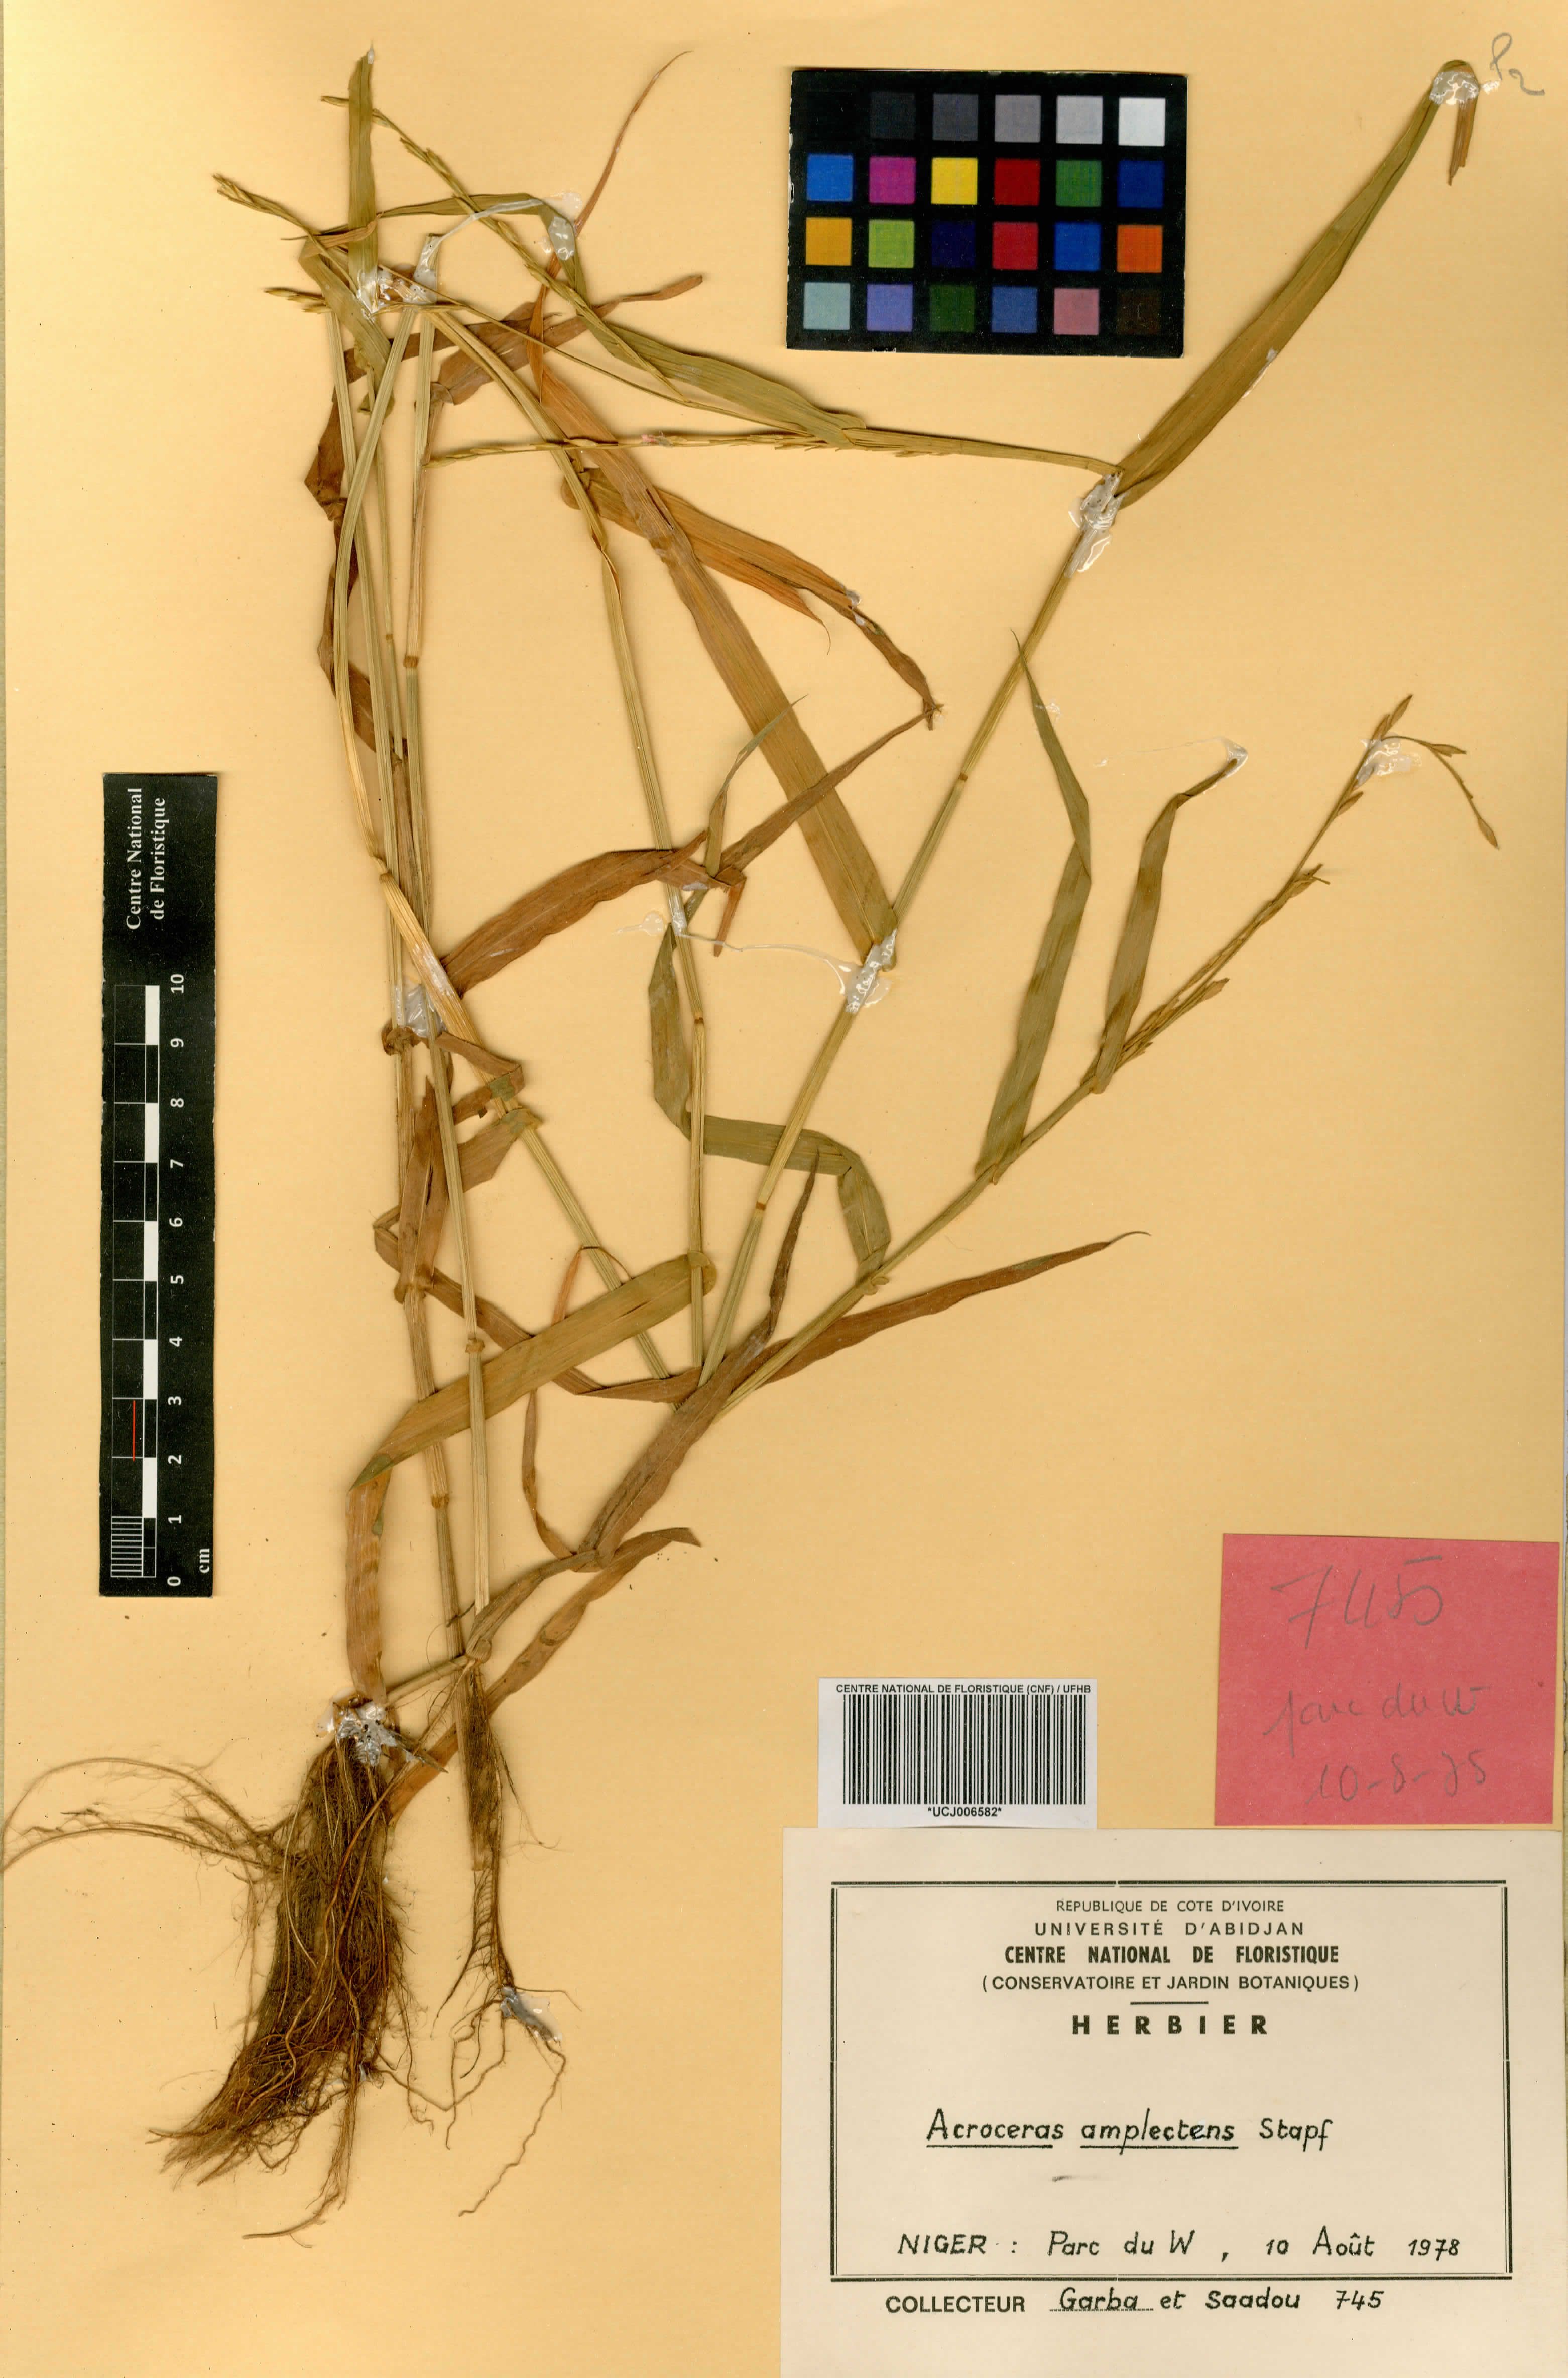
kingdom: Plantae
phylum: Tracheophyta
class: Liliopsida
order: Poales
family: Poaceae
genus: Acroceras
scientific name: Acroceras amplectens
